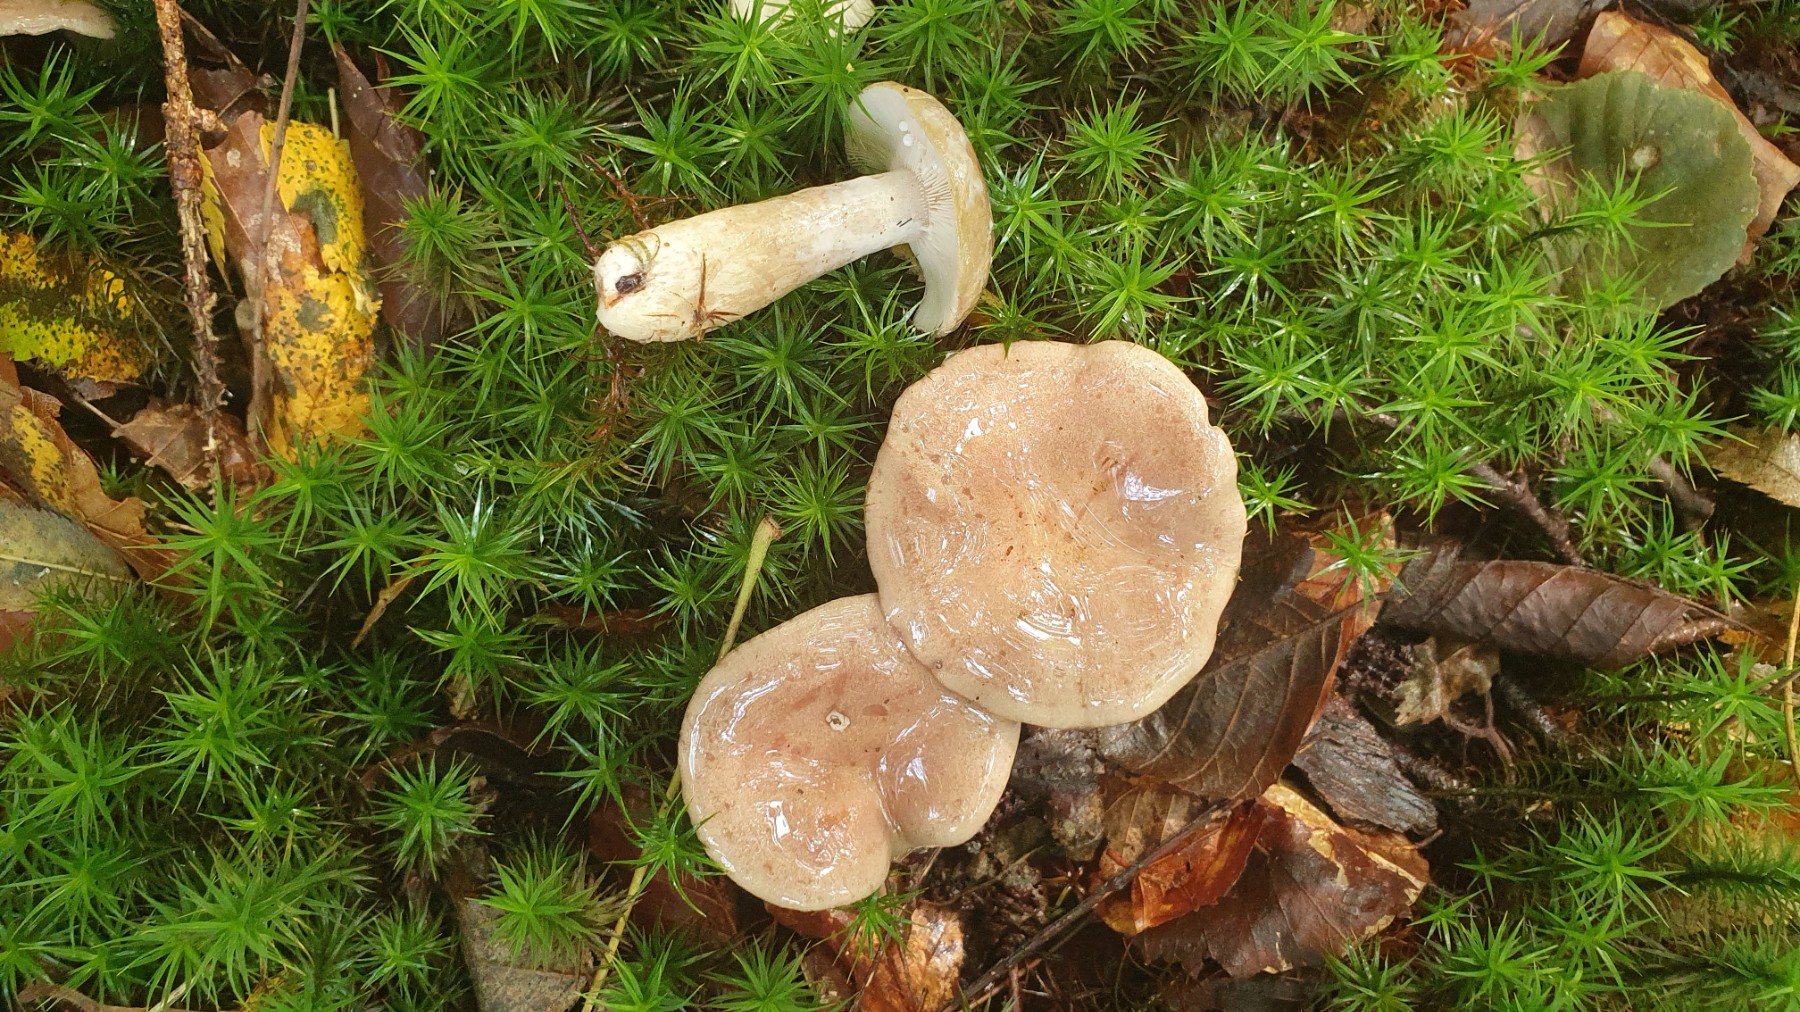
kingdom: Fungi
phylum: Basidiomycota
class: Agaricomycetes
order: Russulales
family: Russulaceae
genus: Lactarius
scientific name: Lactarius blennius
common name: dråbeplettet mælkehat
